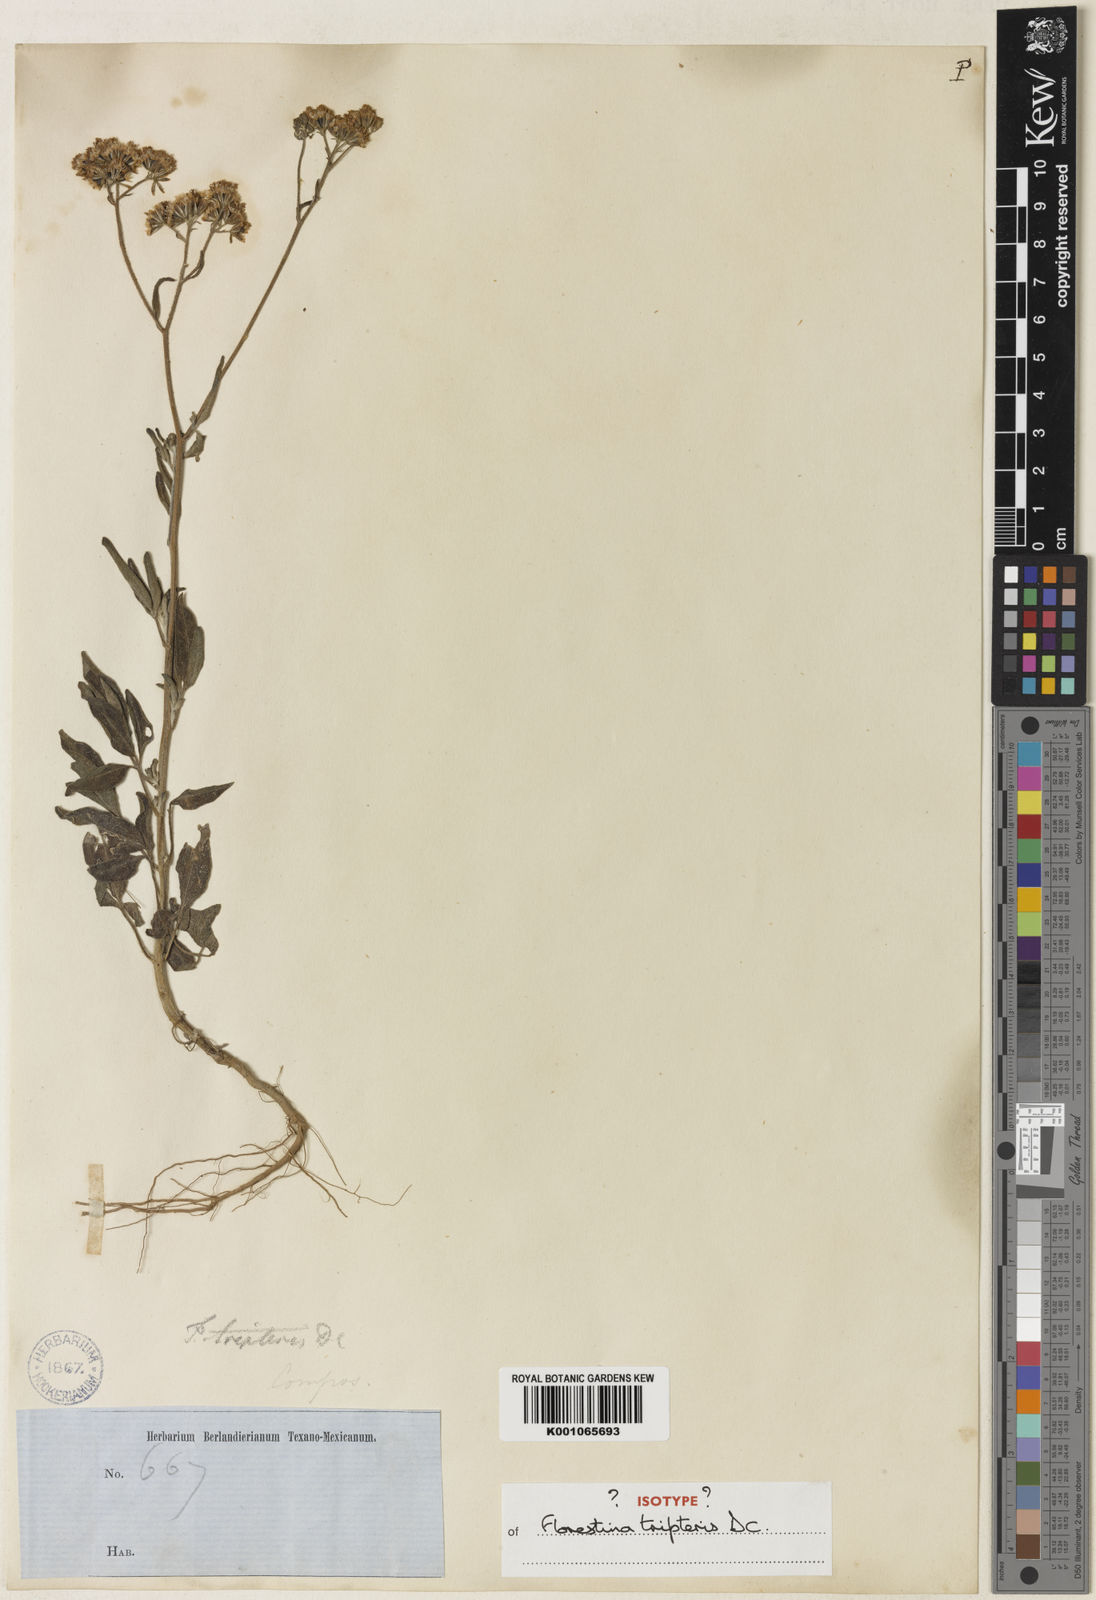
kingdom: Plantae
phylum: Tracheophyta
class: Magnoliopsida
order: Asterales
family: Asteraceae
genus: Florestina
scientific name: Florestina tripteris
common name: Sticky florestina
